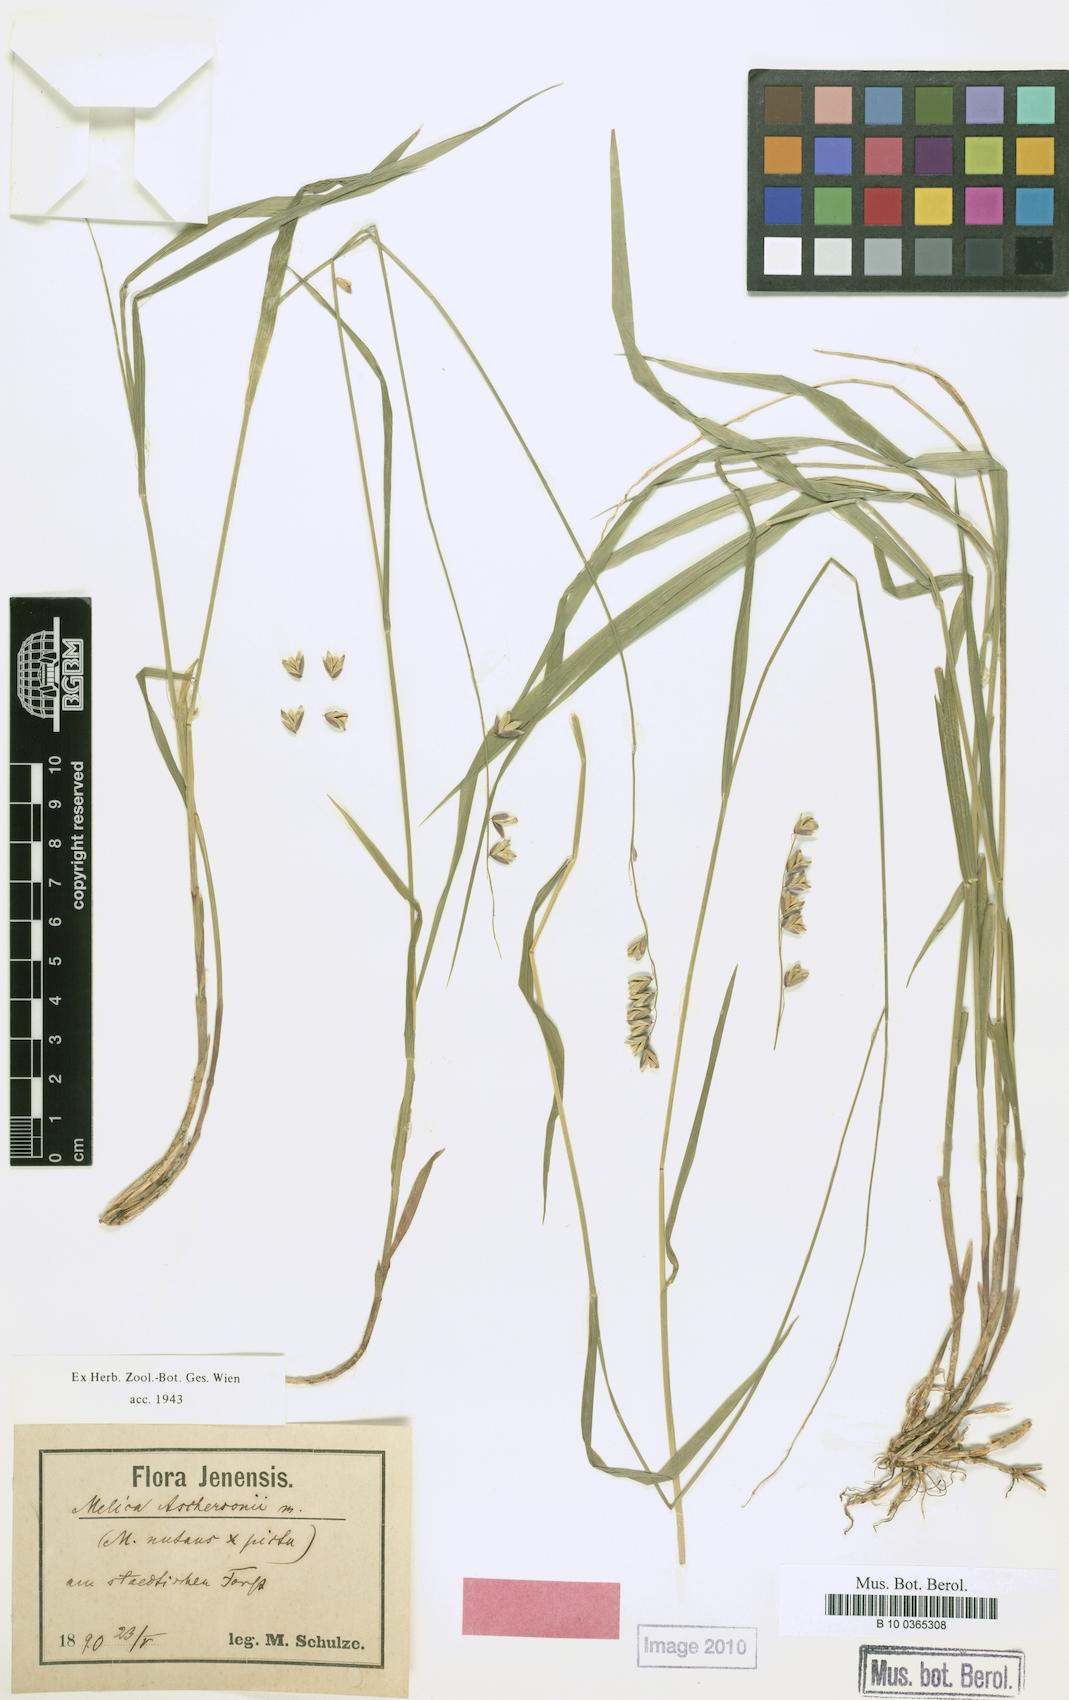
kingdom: Plantae
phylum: Tracheophyta
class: Liliopsida
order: Poales
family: Poaceae
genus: Melica
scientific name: Melica aschersonii
